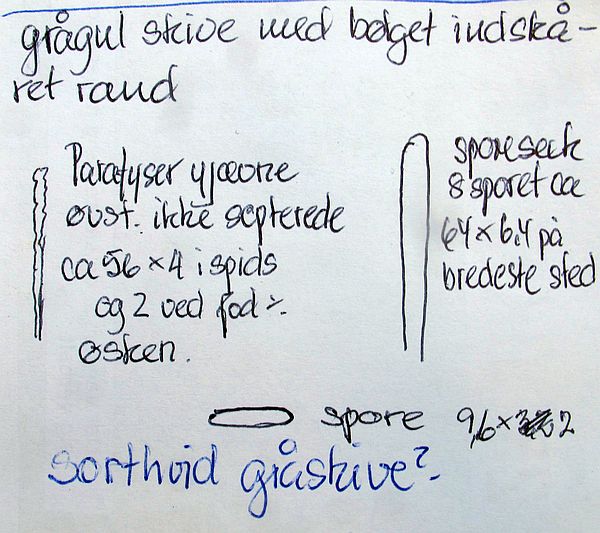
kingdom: Fungi
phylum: Ascomycota
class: Leotiomycetes
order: Helotiales
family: Mollisiaceae
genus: Mollisia
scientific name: Mollisia
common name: gråskive
